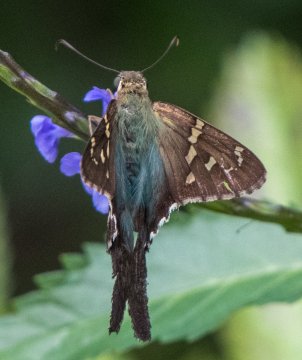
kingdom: Animalia
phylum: Arthropoda
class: Insecta
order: Lepidoptera
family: Hesperiidae
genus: Urbanus
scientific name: Urbanus proteus
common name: Long-tailed Skipper
